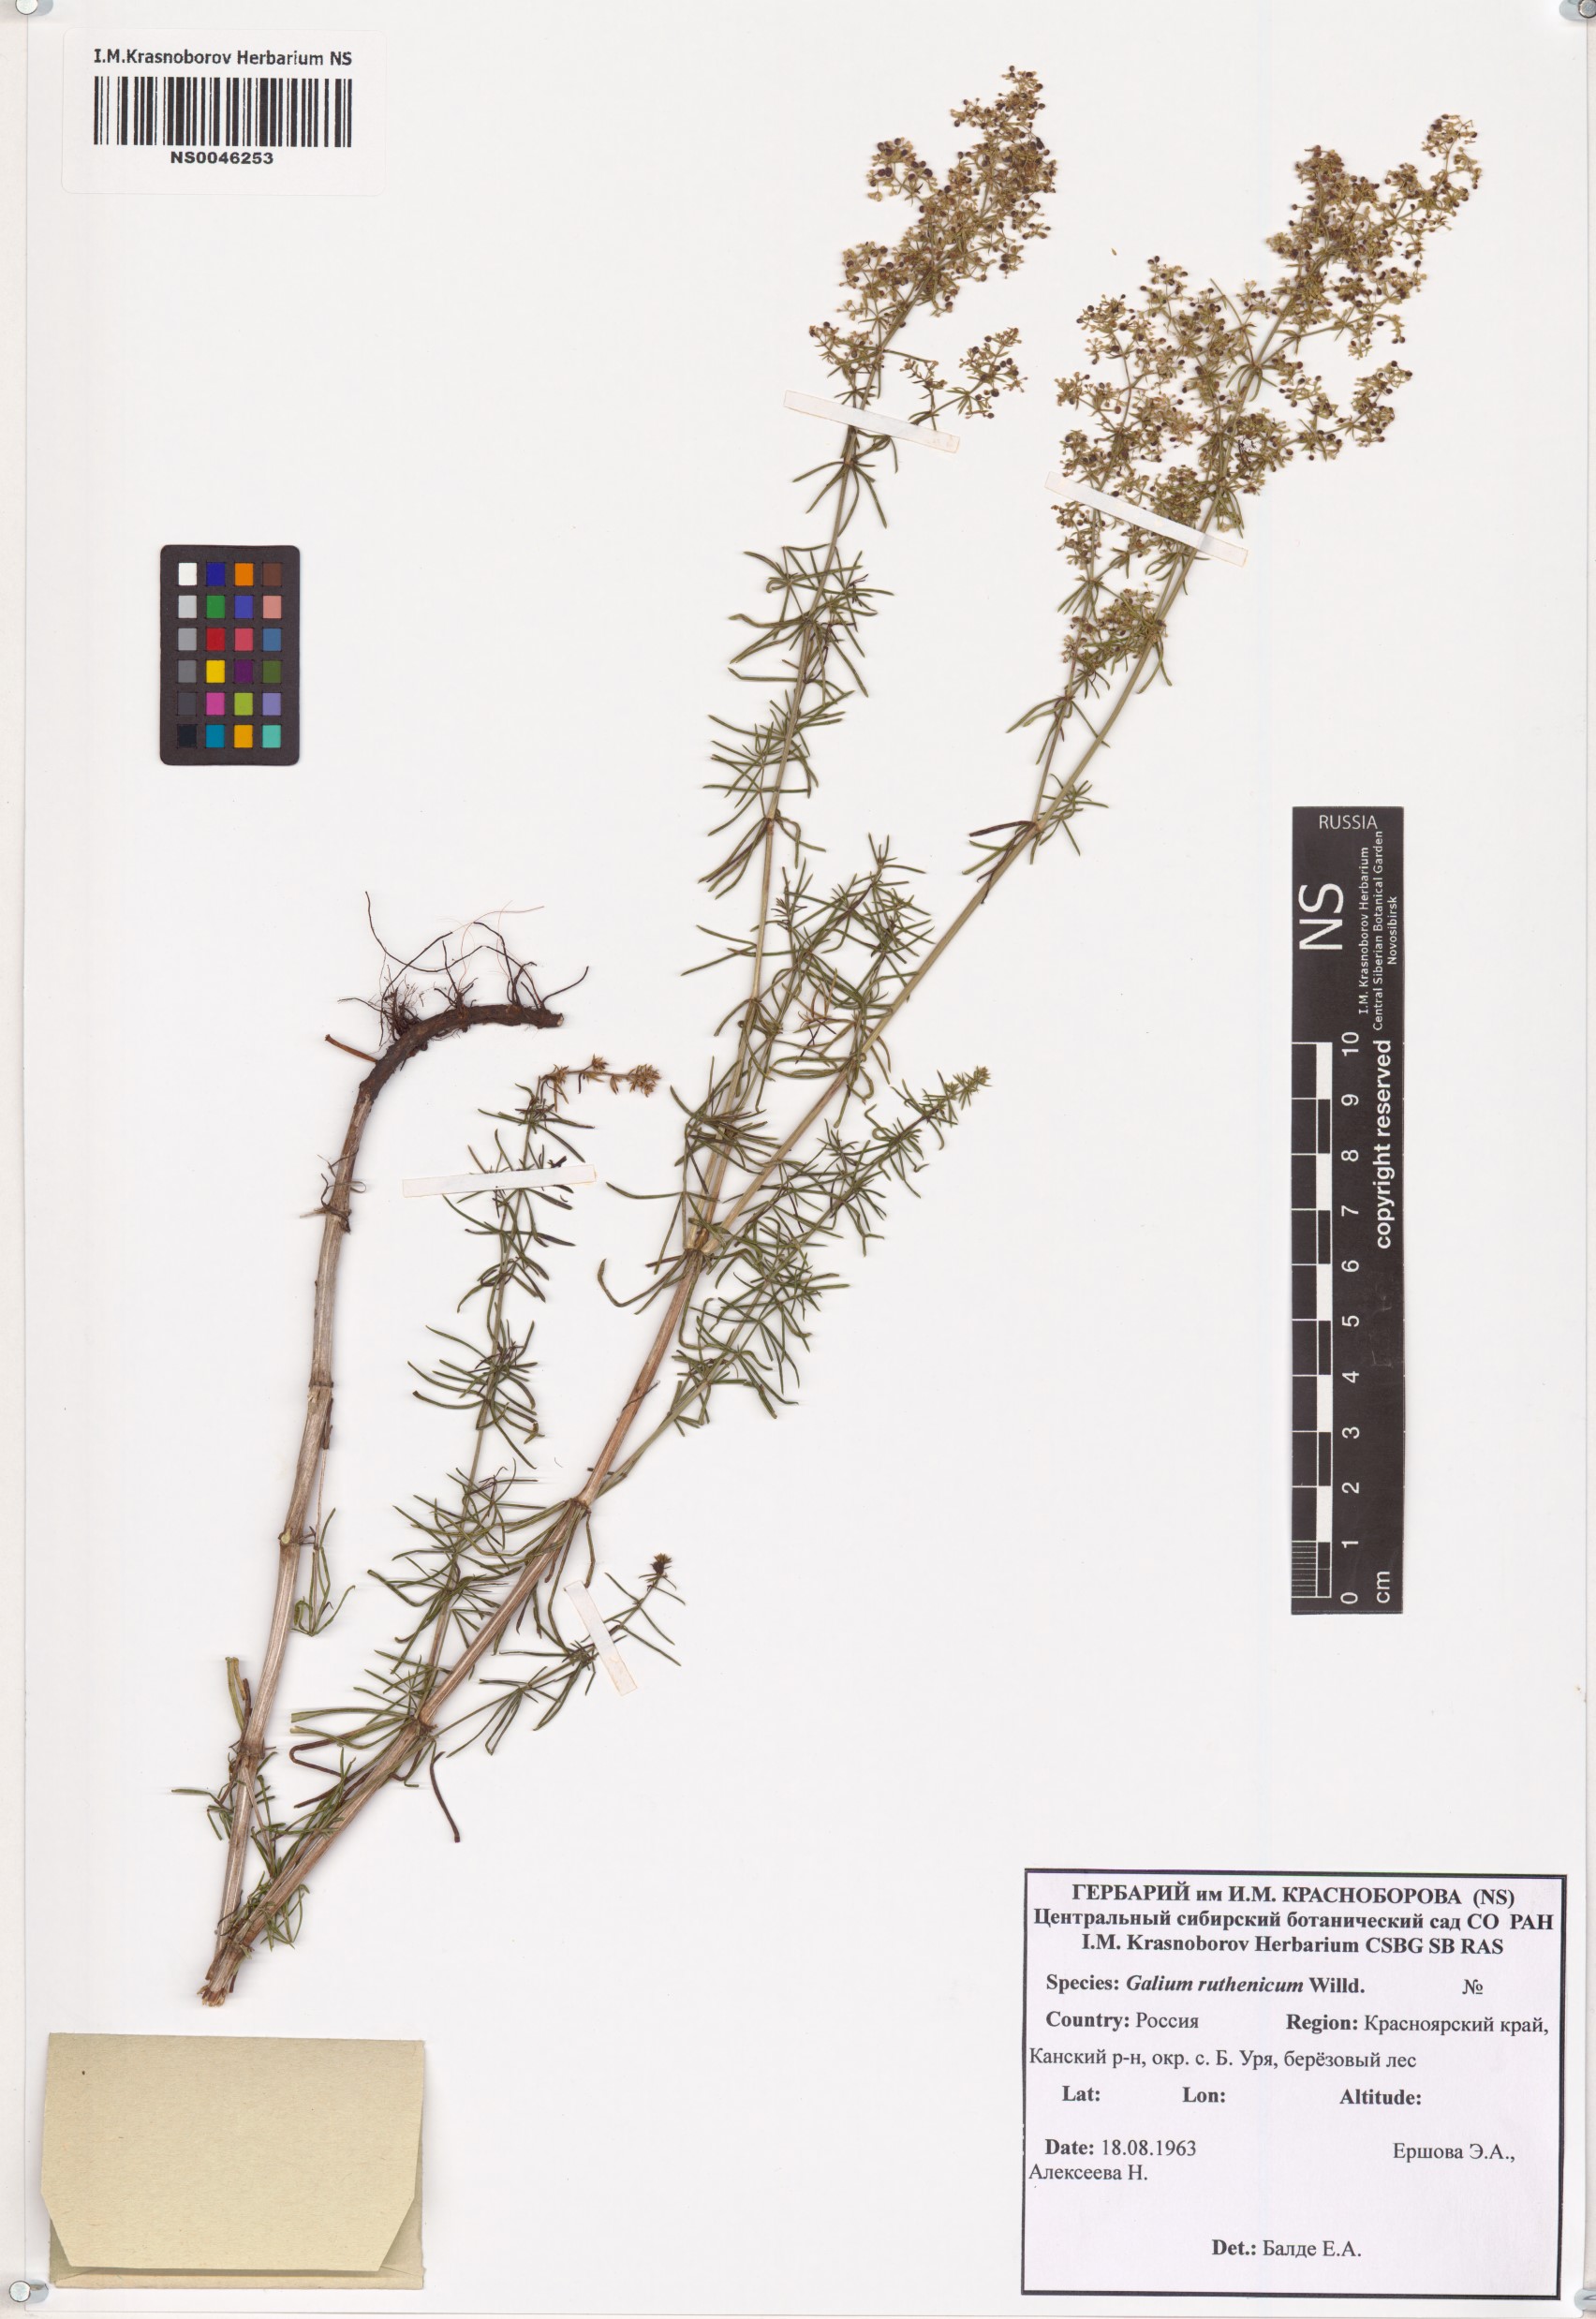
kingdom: Plantae
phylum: Tracheophyta
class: Magnoliopsida
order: Gentianales
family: Rubiaceae
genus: Galium
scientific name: Galium verum
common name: Lady's bedstraw
